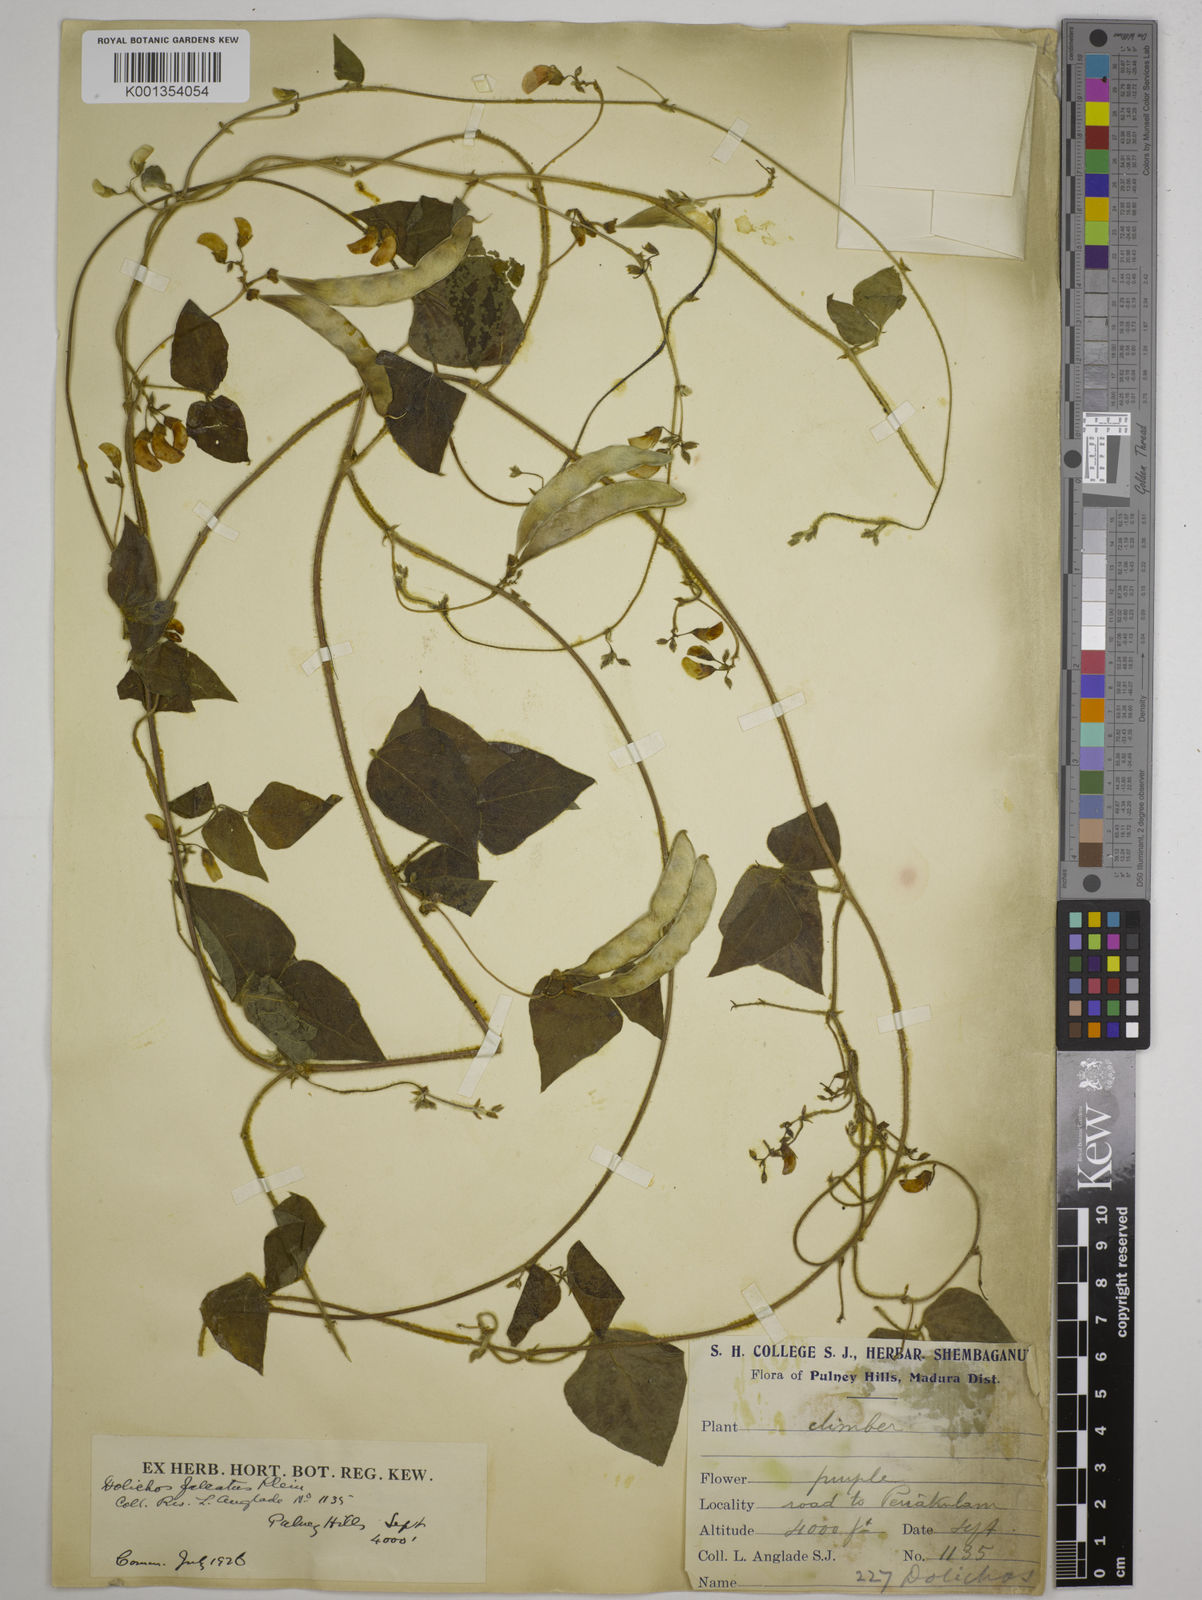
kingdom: Plantae
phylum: Tracheophyta
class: Magnoliopsida
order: Fabales
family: Fabaceae
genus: Dolichos
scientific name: Dolichos
